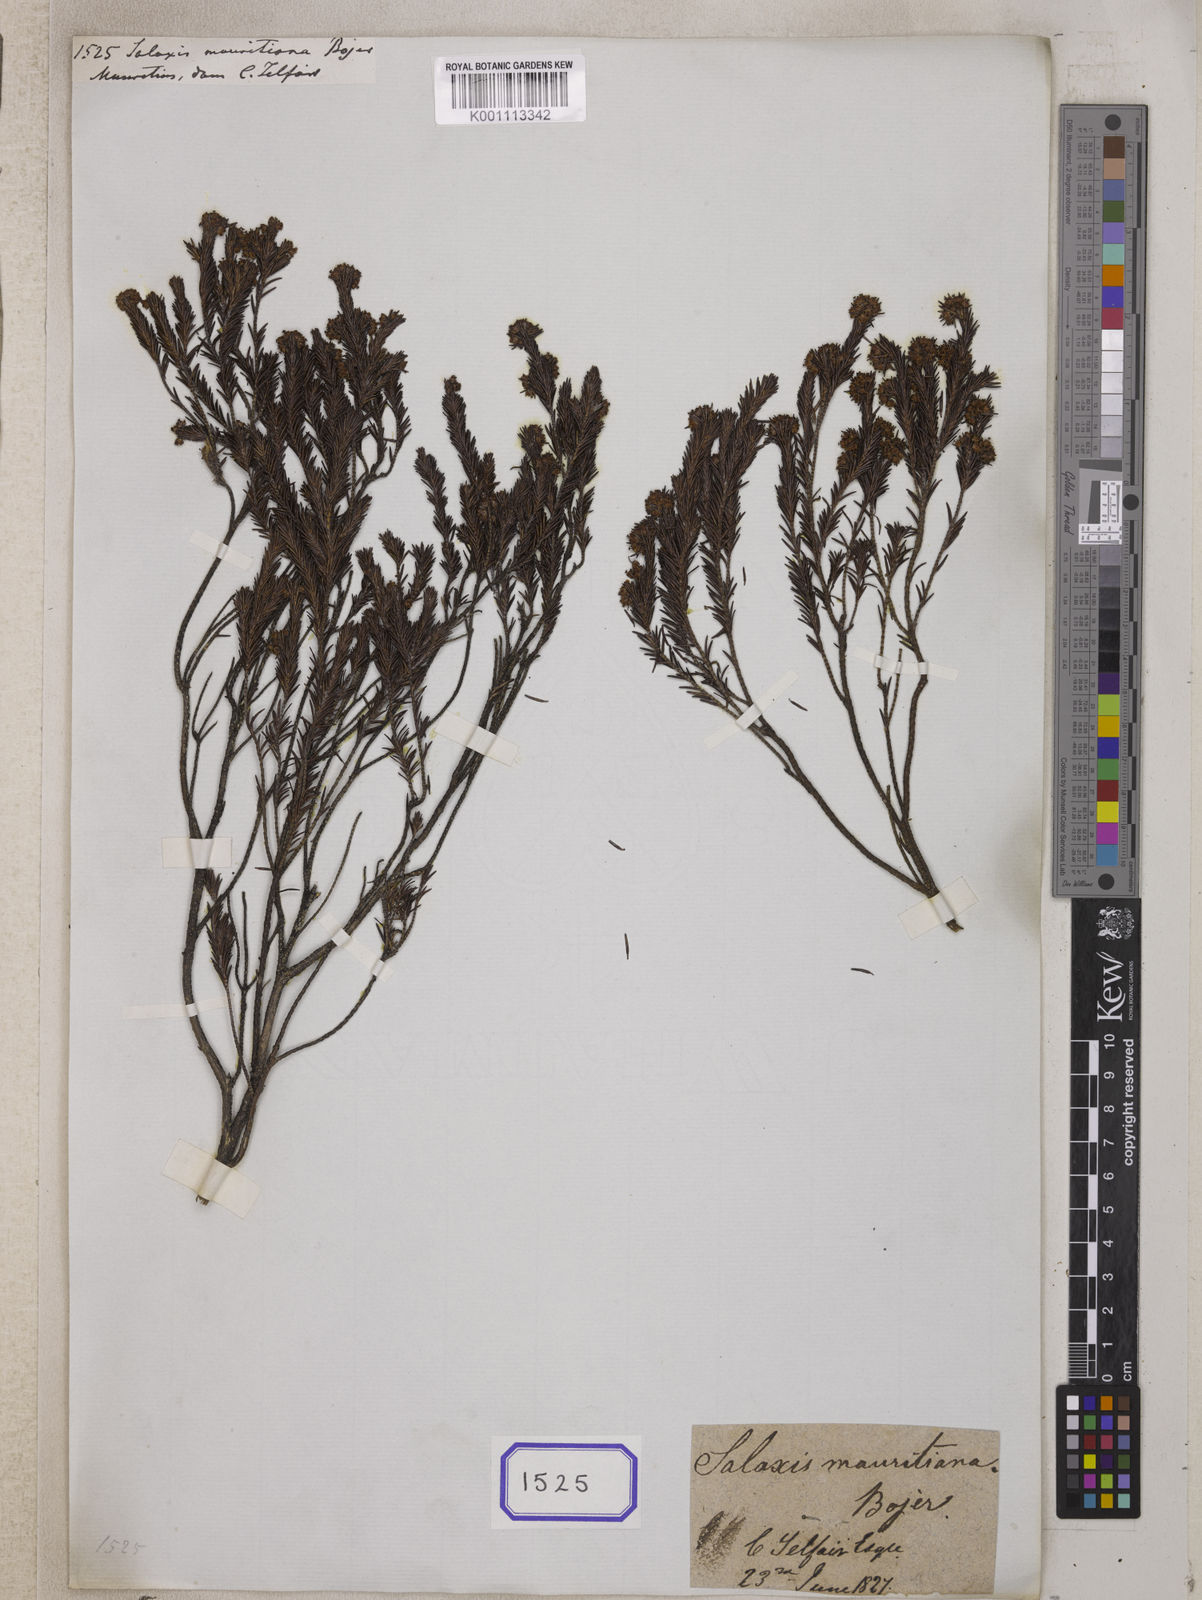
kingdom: Plantae
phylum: Tracheophyta
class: Magnoliopsida
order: Ericales
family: Ericaceae
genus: Erica
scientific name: Erica
